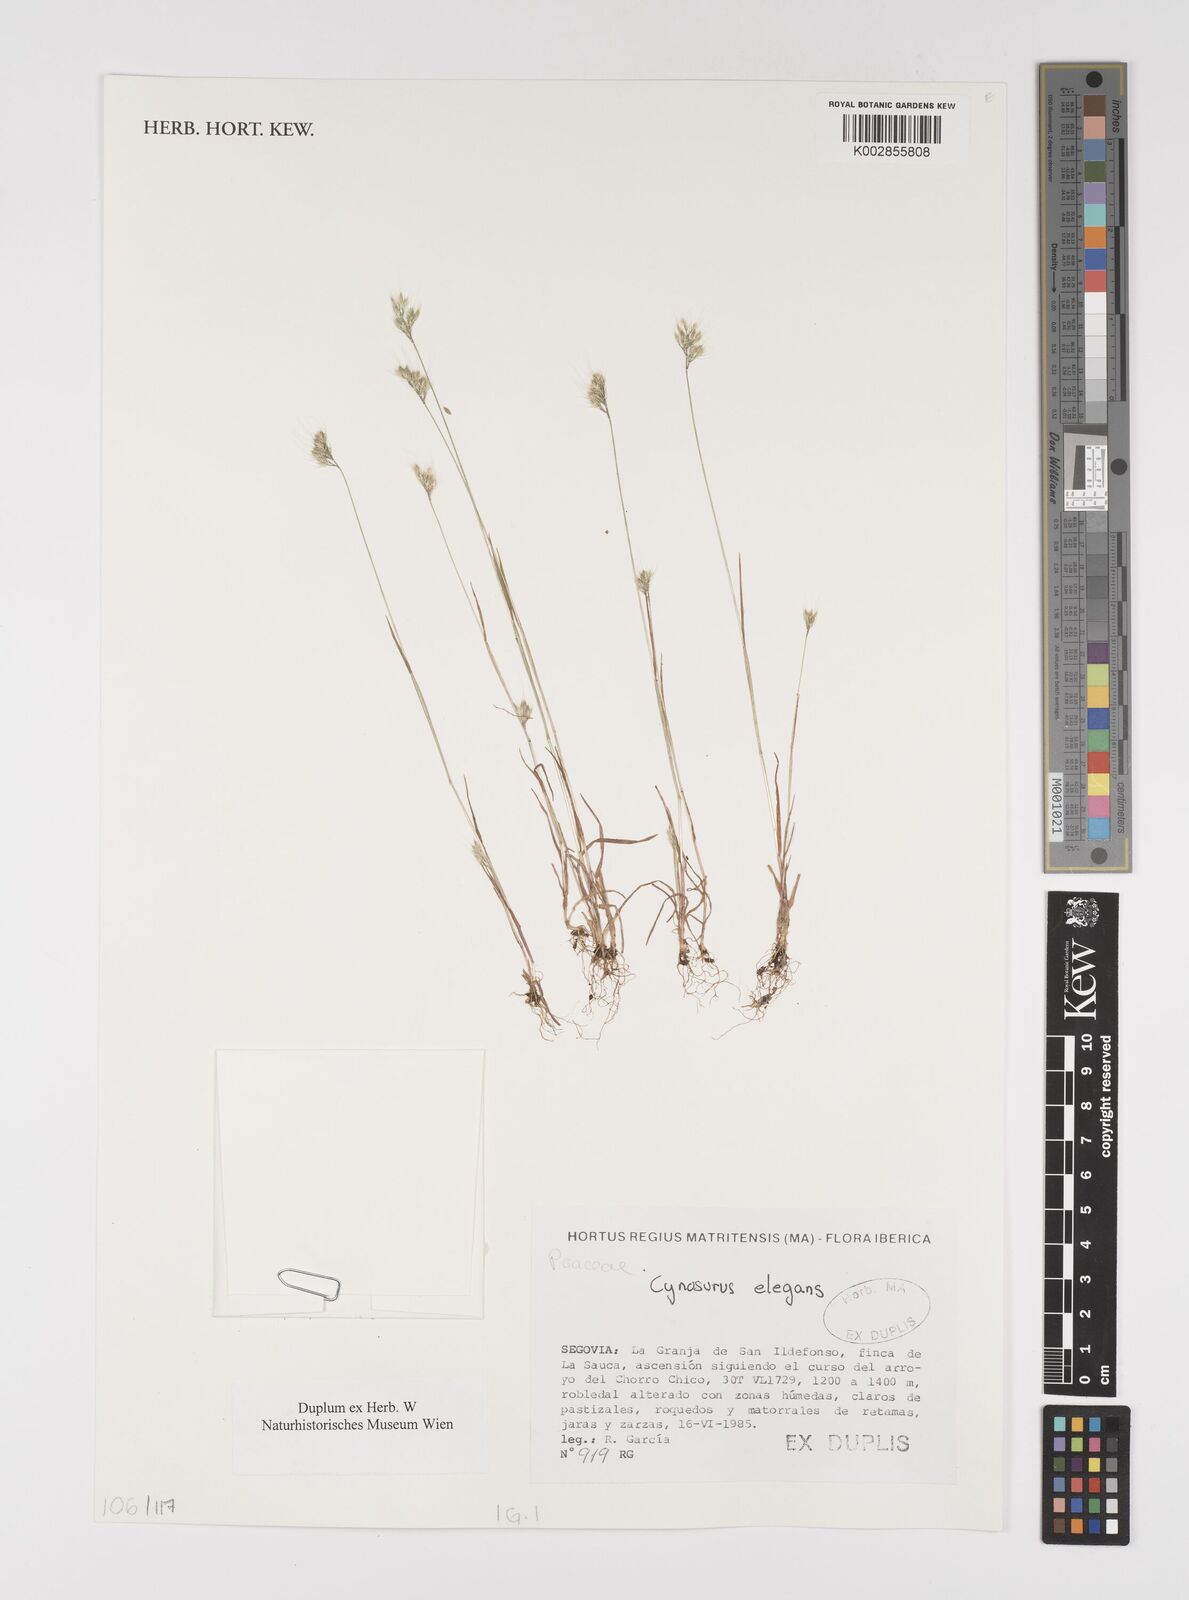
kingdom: Plantae
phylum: Tracheophyta
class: Liliopsida
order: Poales
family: Poaceae
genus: Cynosurus
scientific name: Cynosurus elegans
